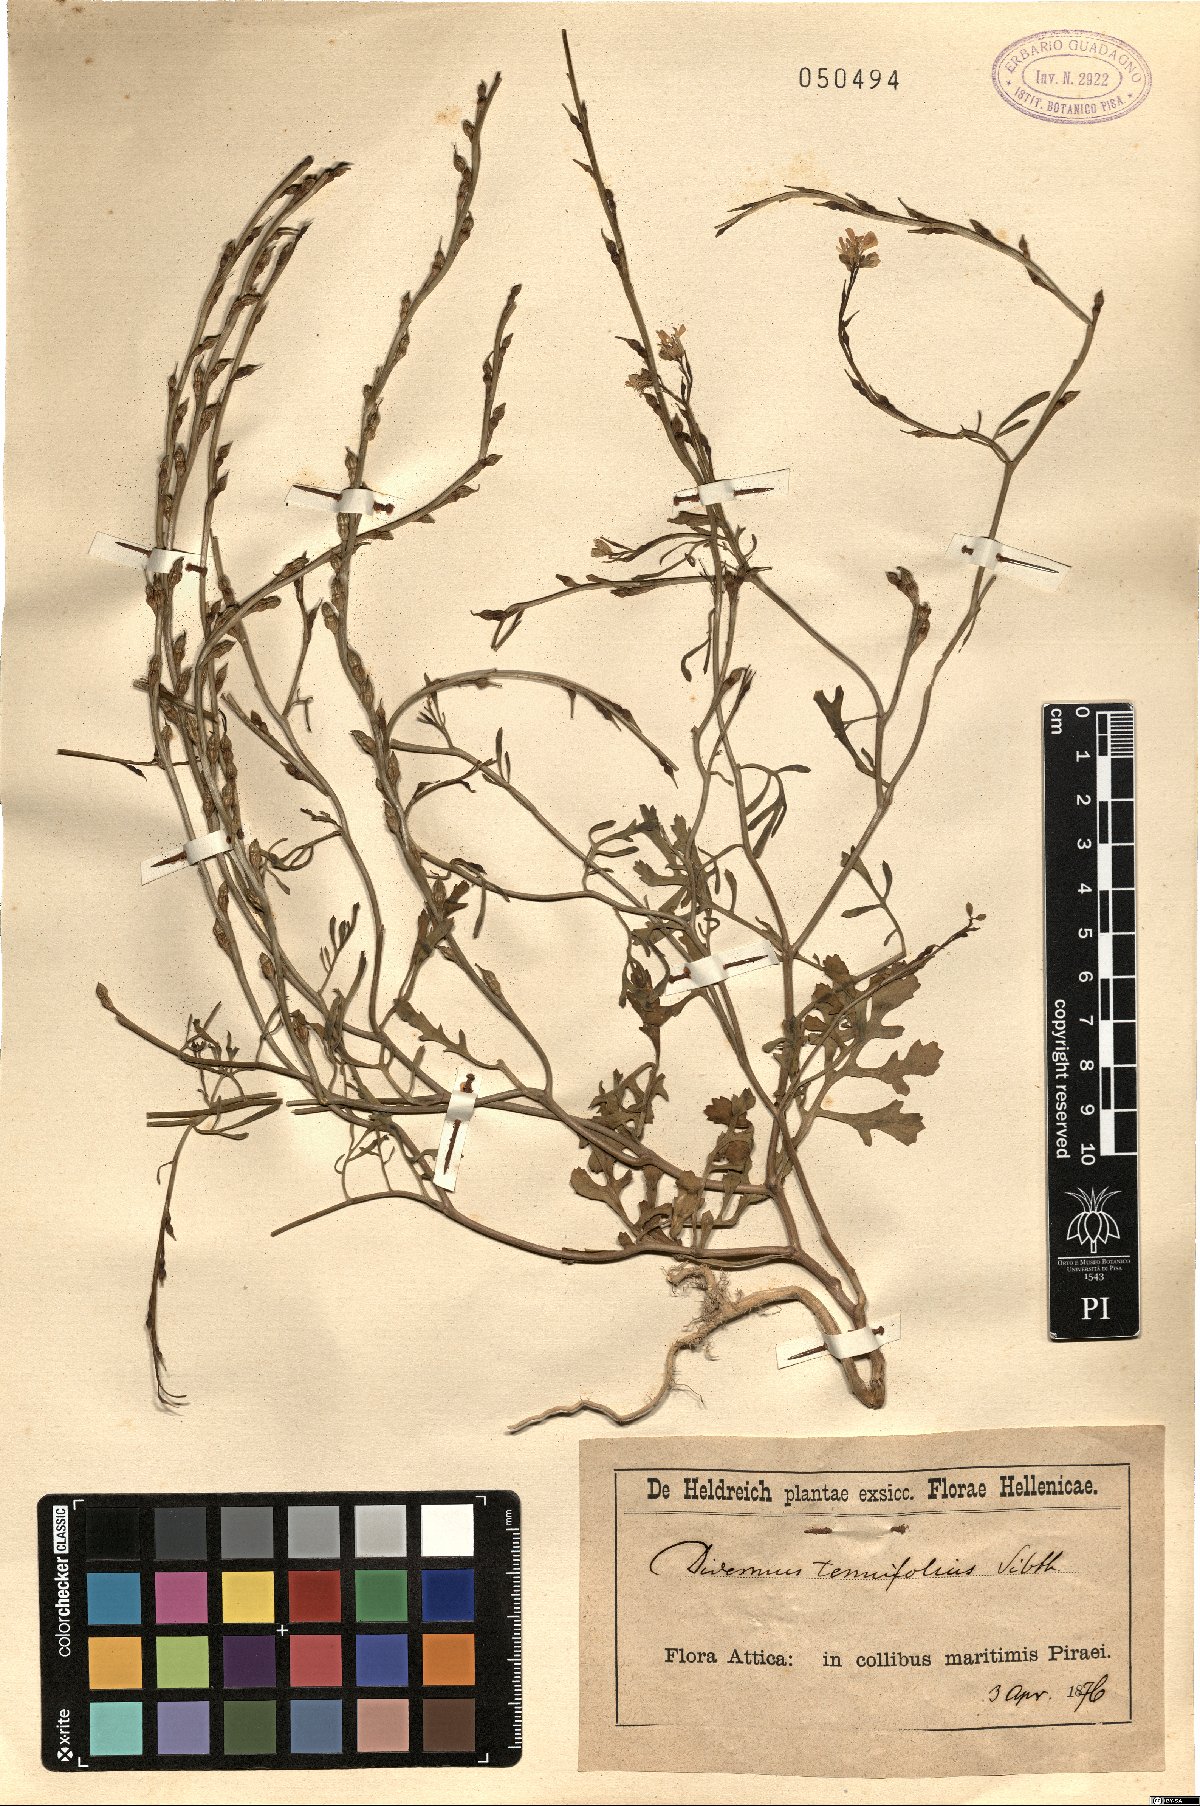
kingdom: Plantae
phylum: Tracheophyta
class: Magnoliopsida
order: Brassicales
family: Brassicaceae
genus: Didesmus
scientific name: Didesmus aegyptius
